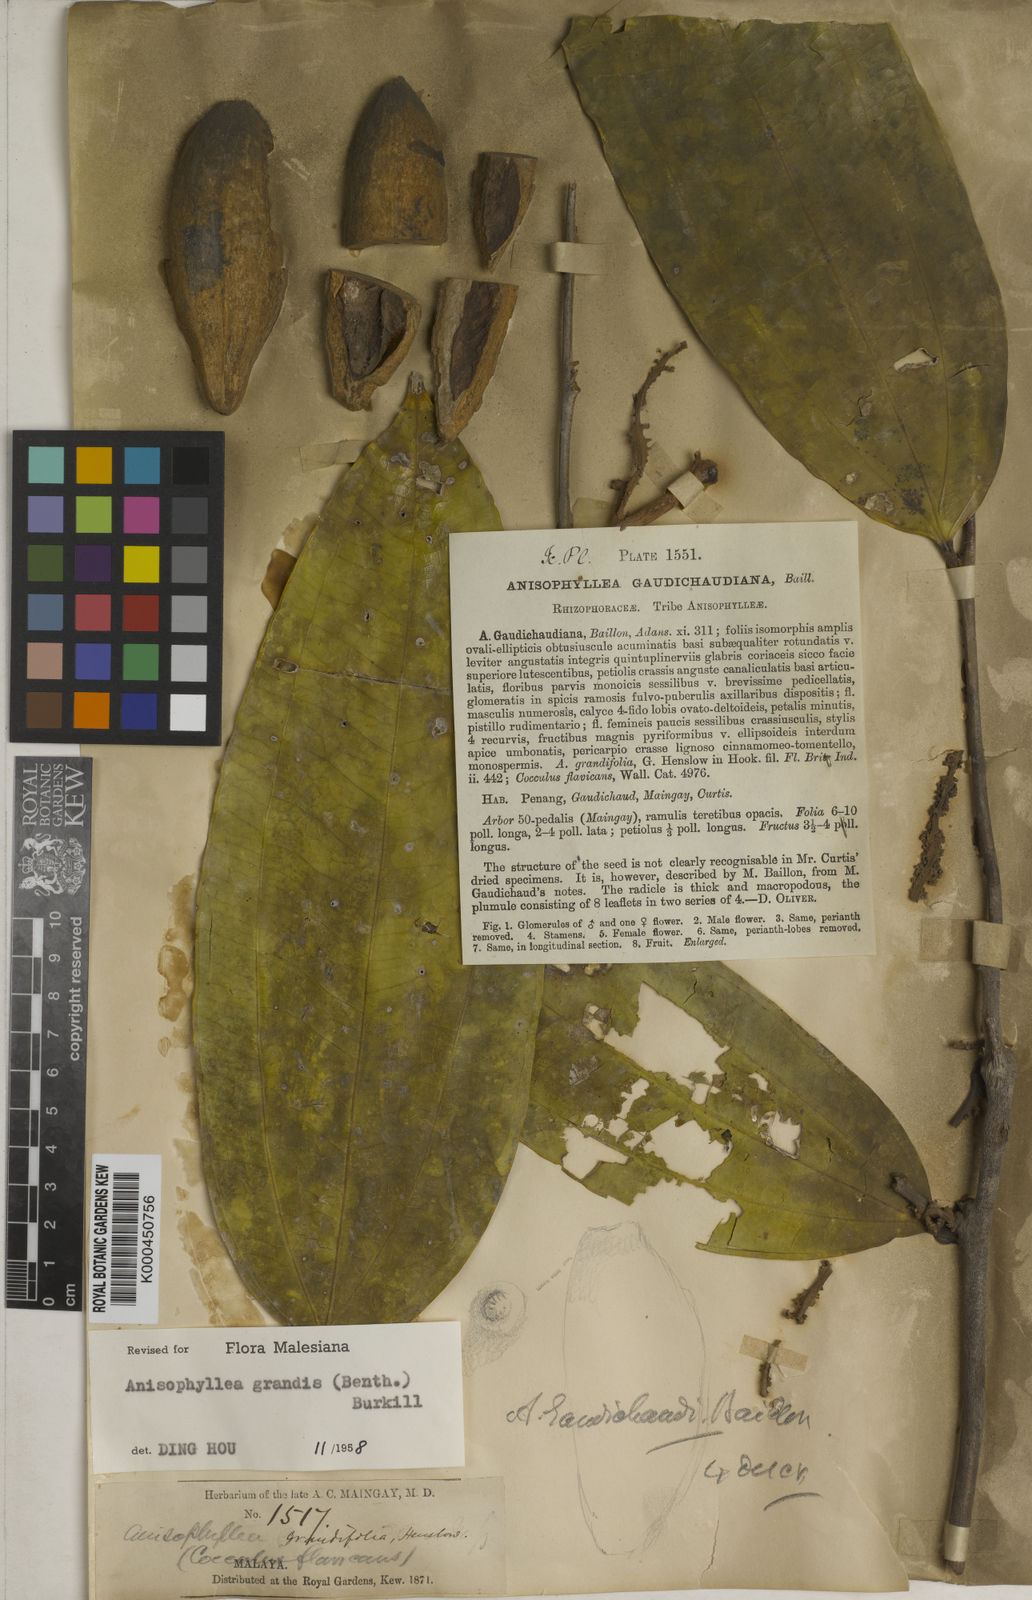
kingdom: Plantae
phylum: Tracheophyta
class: Magnoliopsida
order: Cucurbitales
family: Anisophylleaceae
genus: Anisophyllea
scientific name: Anisophyllea grandis
